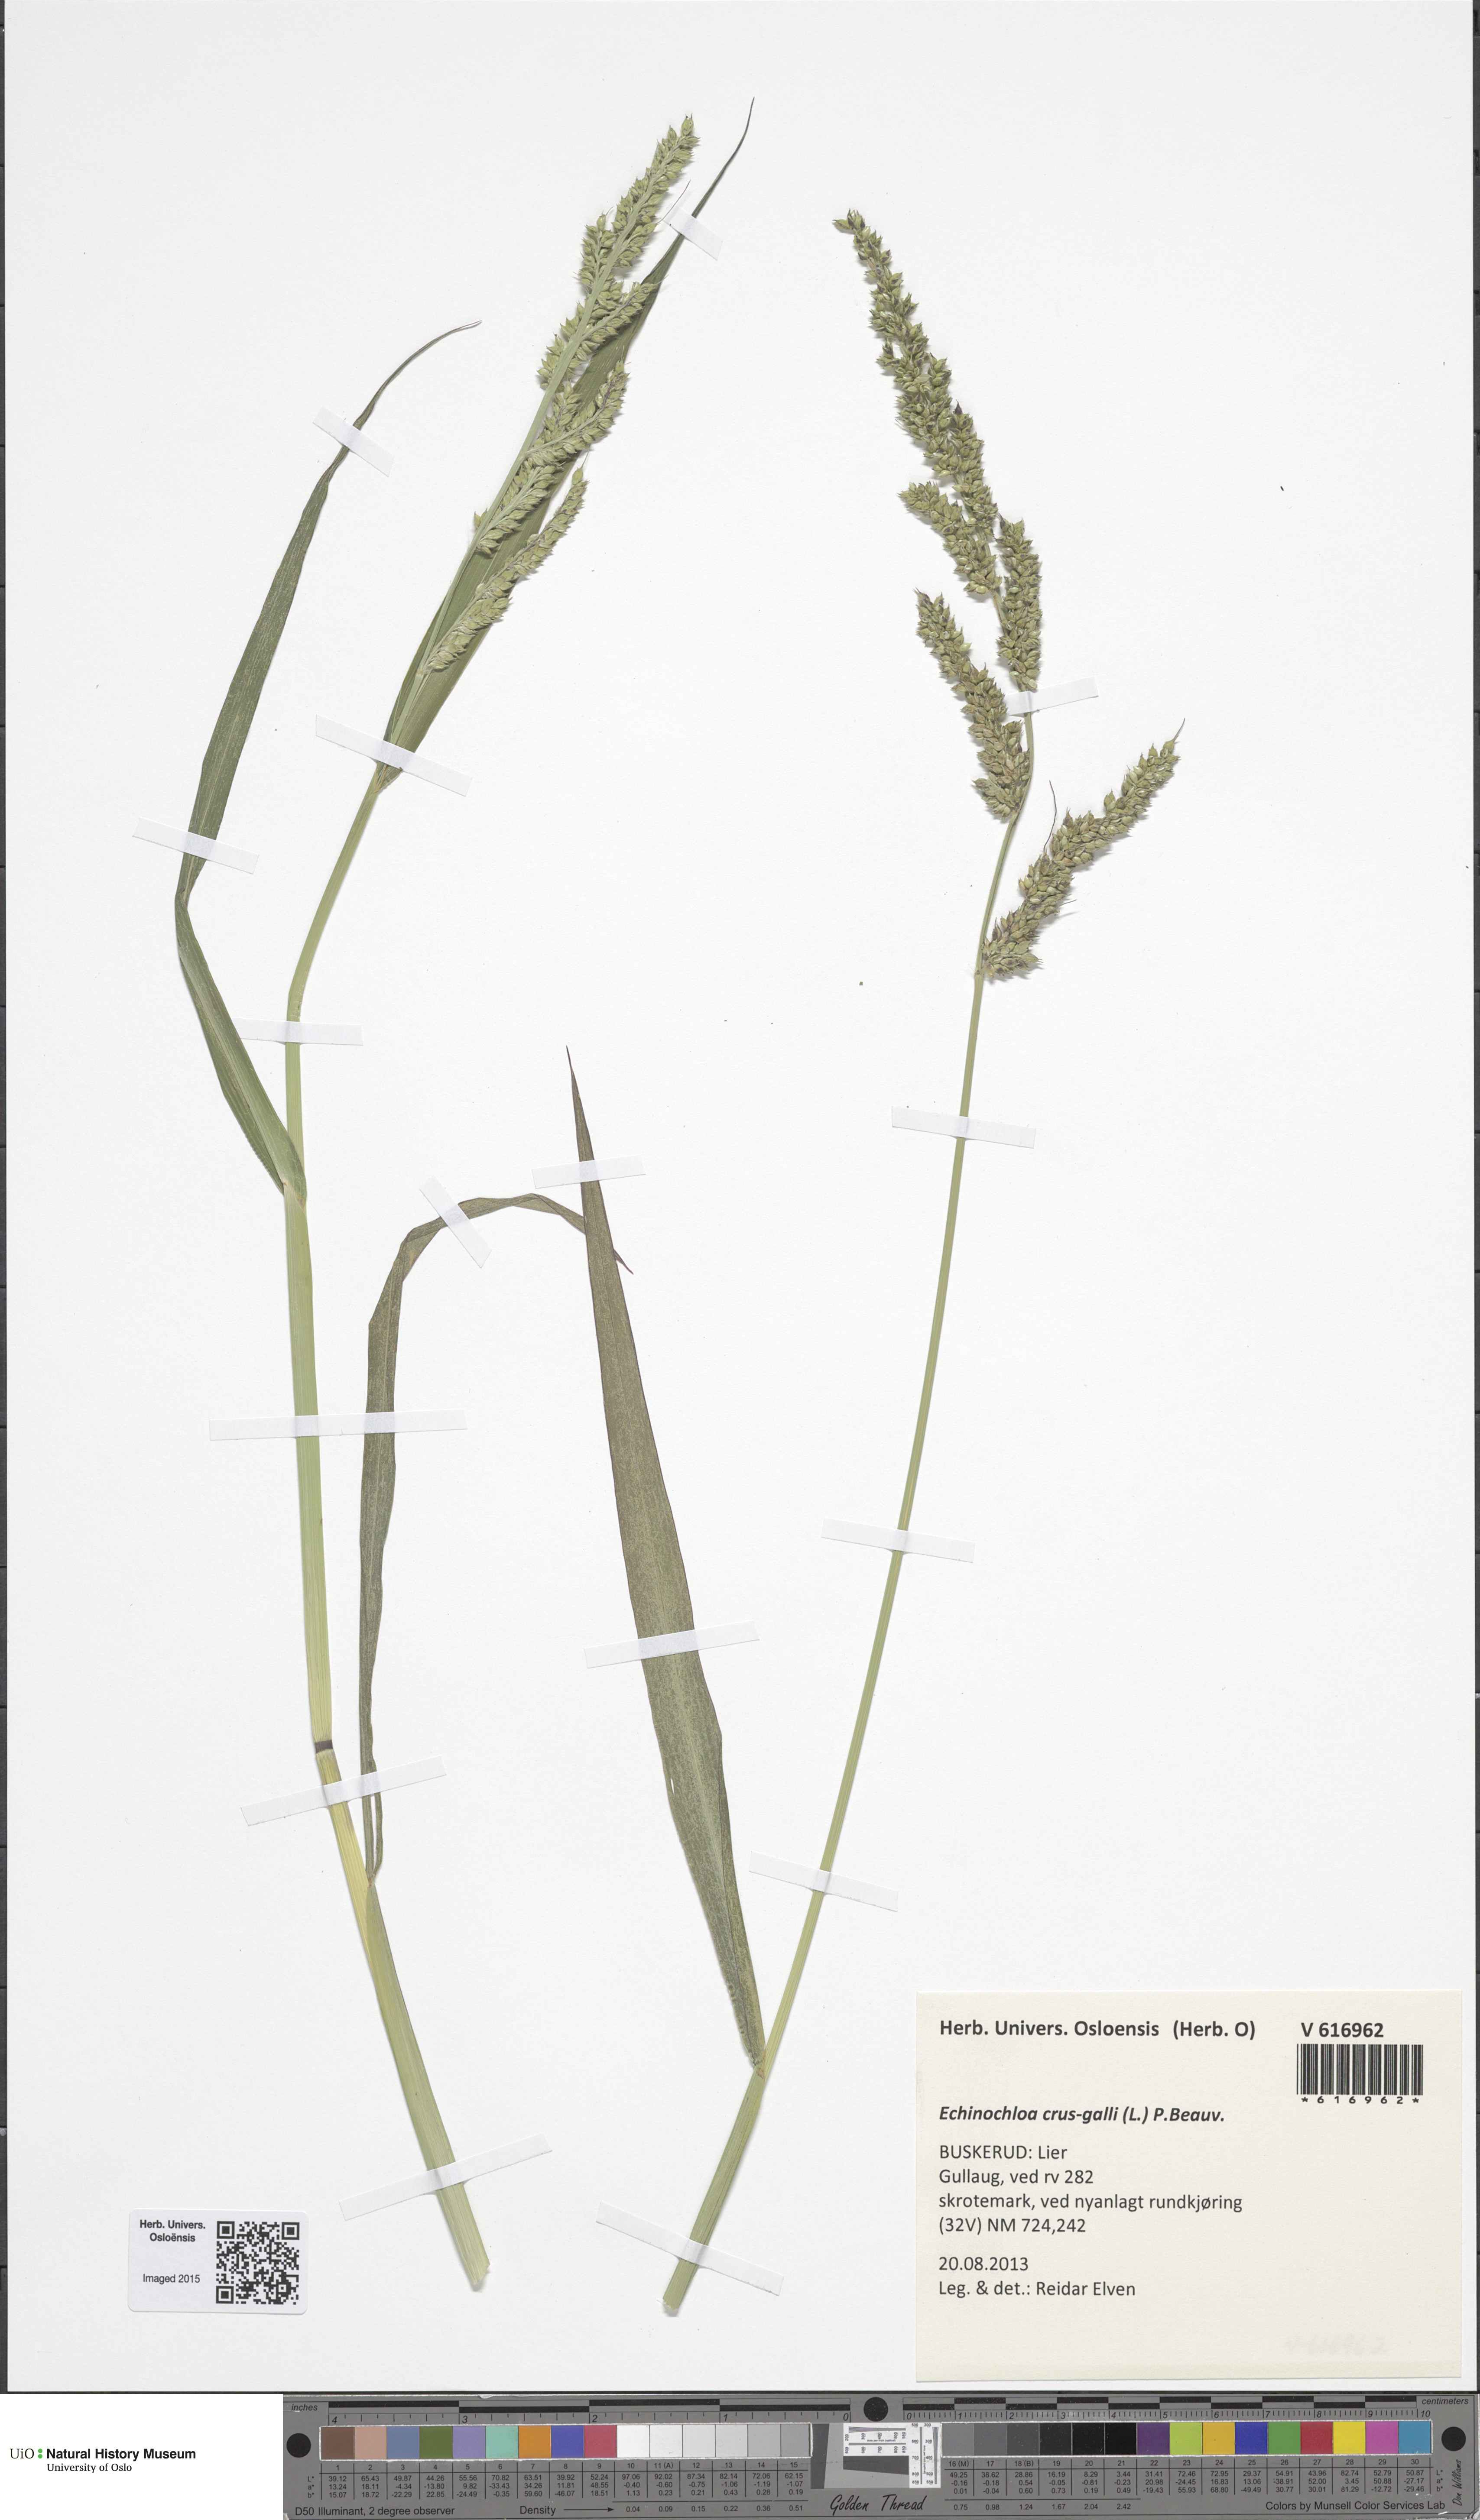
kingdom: Plantae
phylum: Tracheophyta
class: Liliopsida
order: Poales
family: Poaceae
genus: Echinochloa
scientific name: Echinochloa crus-galli
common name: Cockspur
